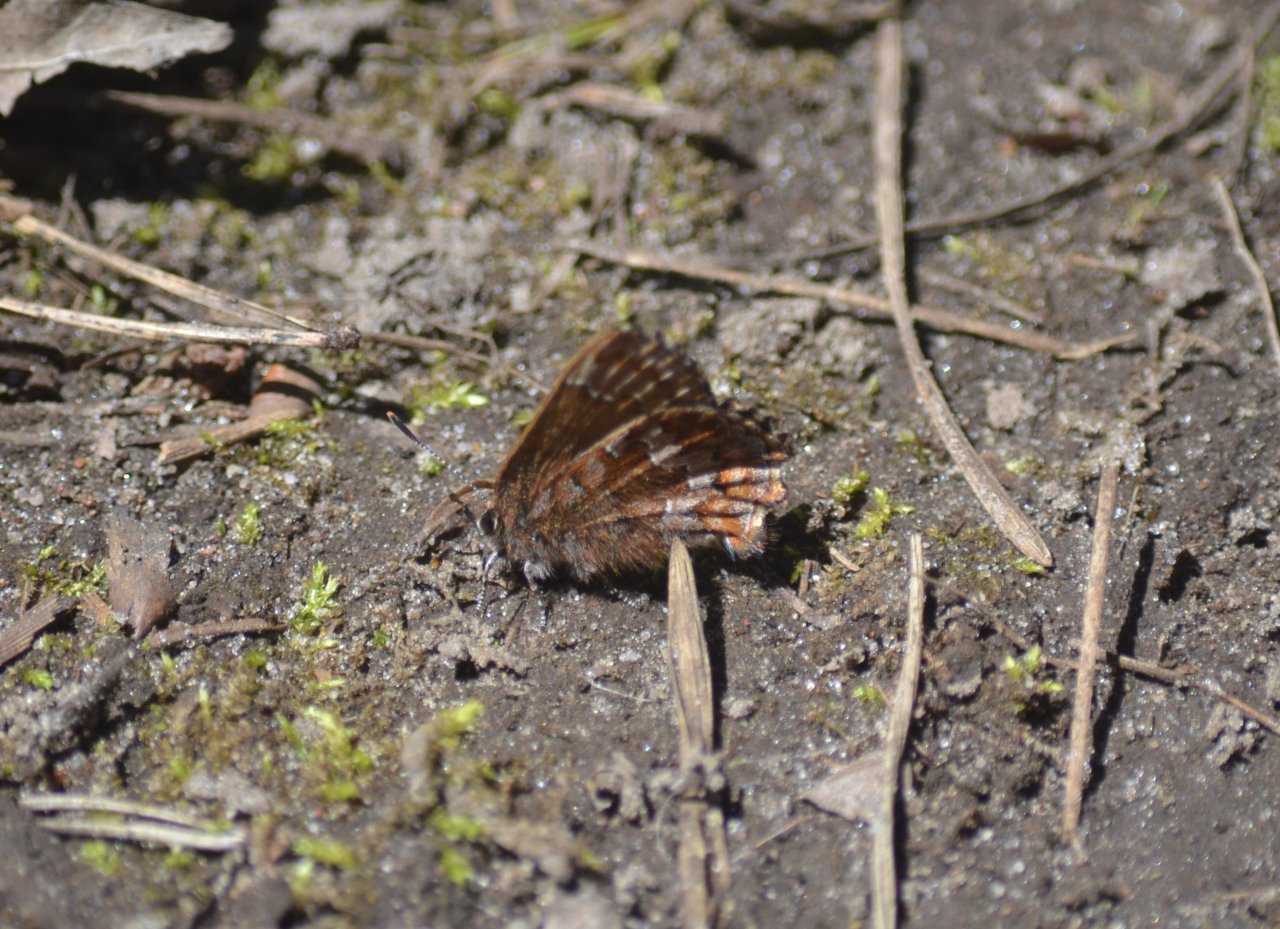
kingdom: Animalia
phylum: Arthropoda
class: Insecta
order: Lepidoptera
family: Lycaenidae
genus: Incisalia
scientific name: Incisalia niphon
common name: Eastern Pine Elfin
